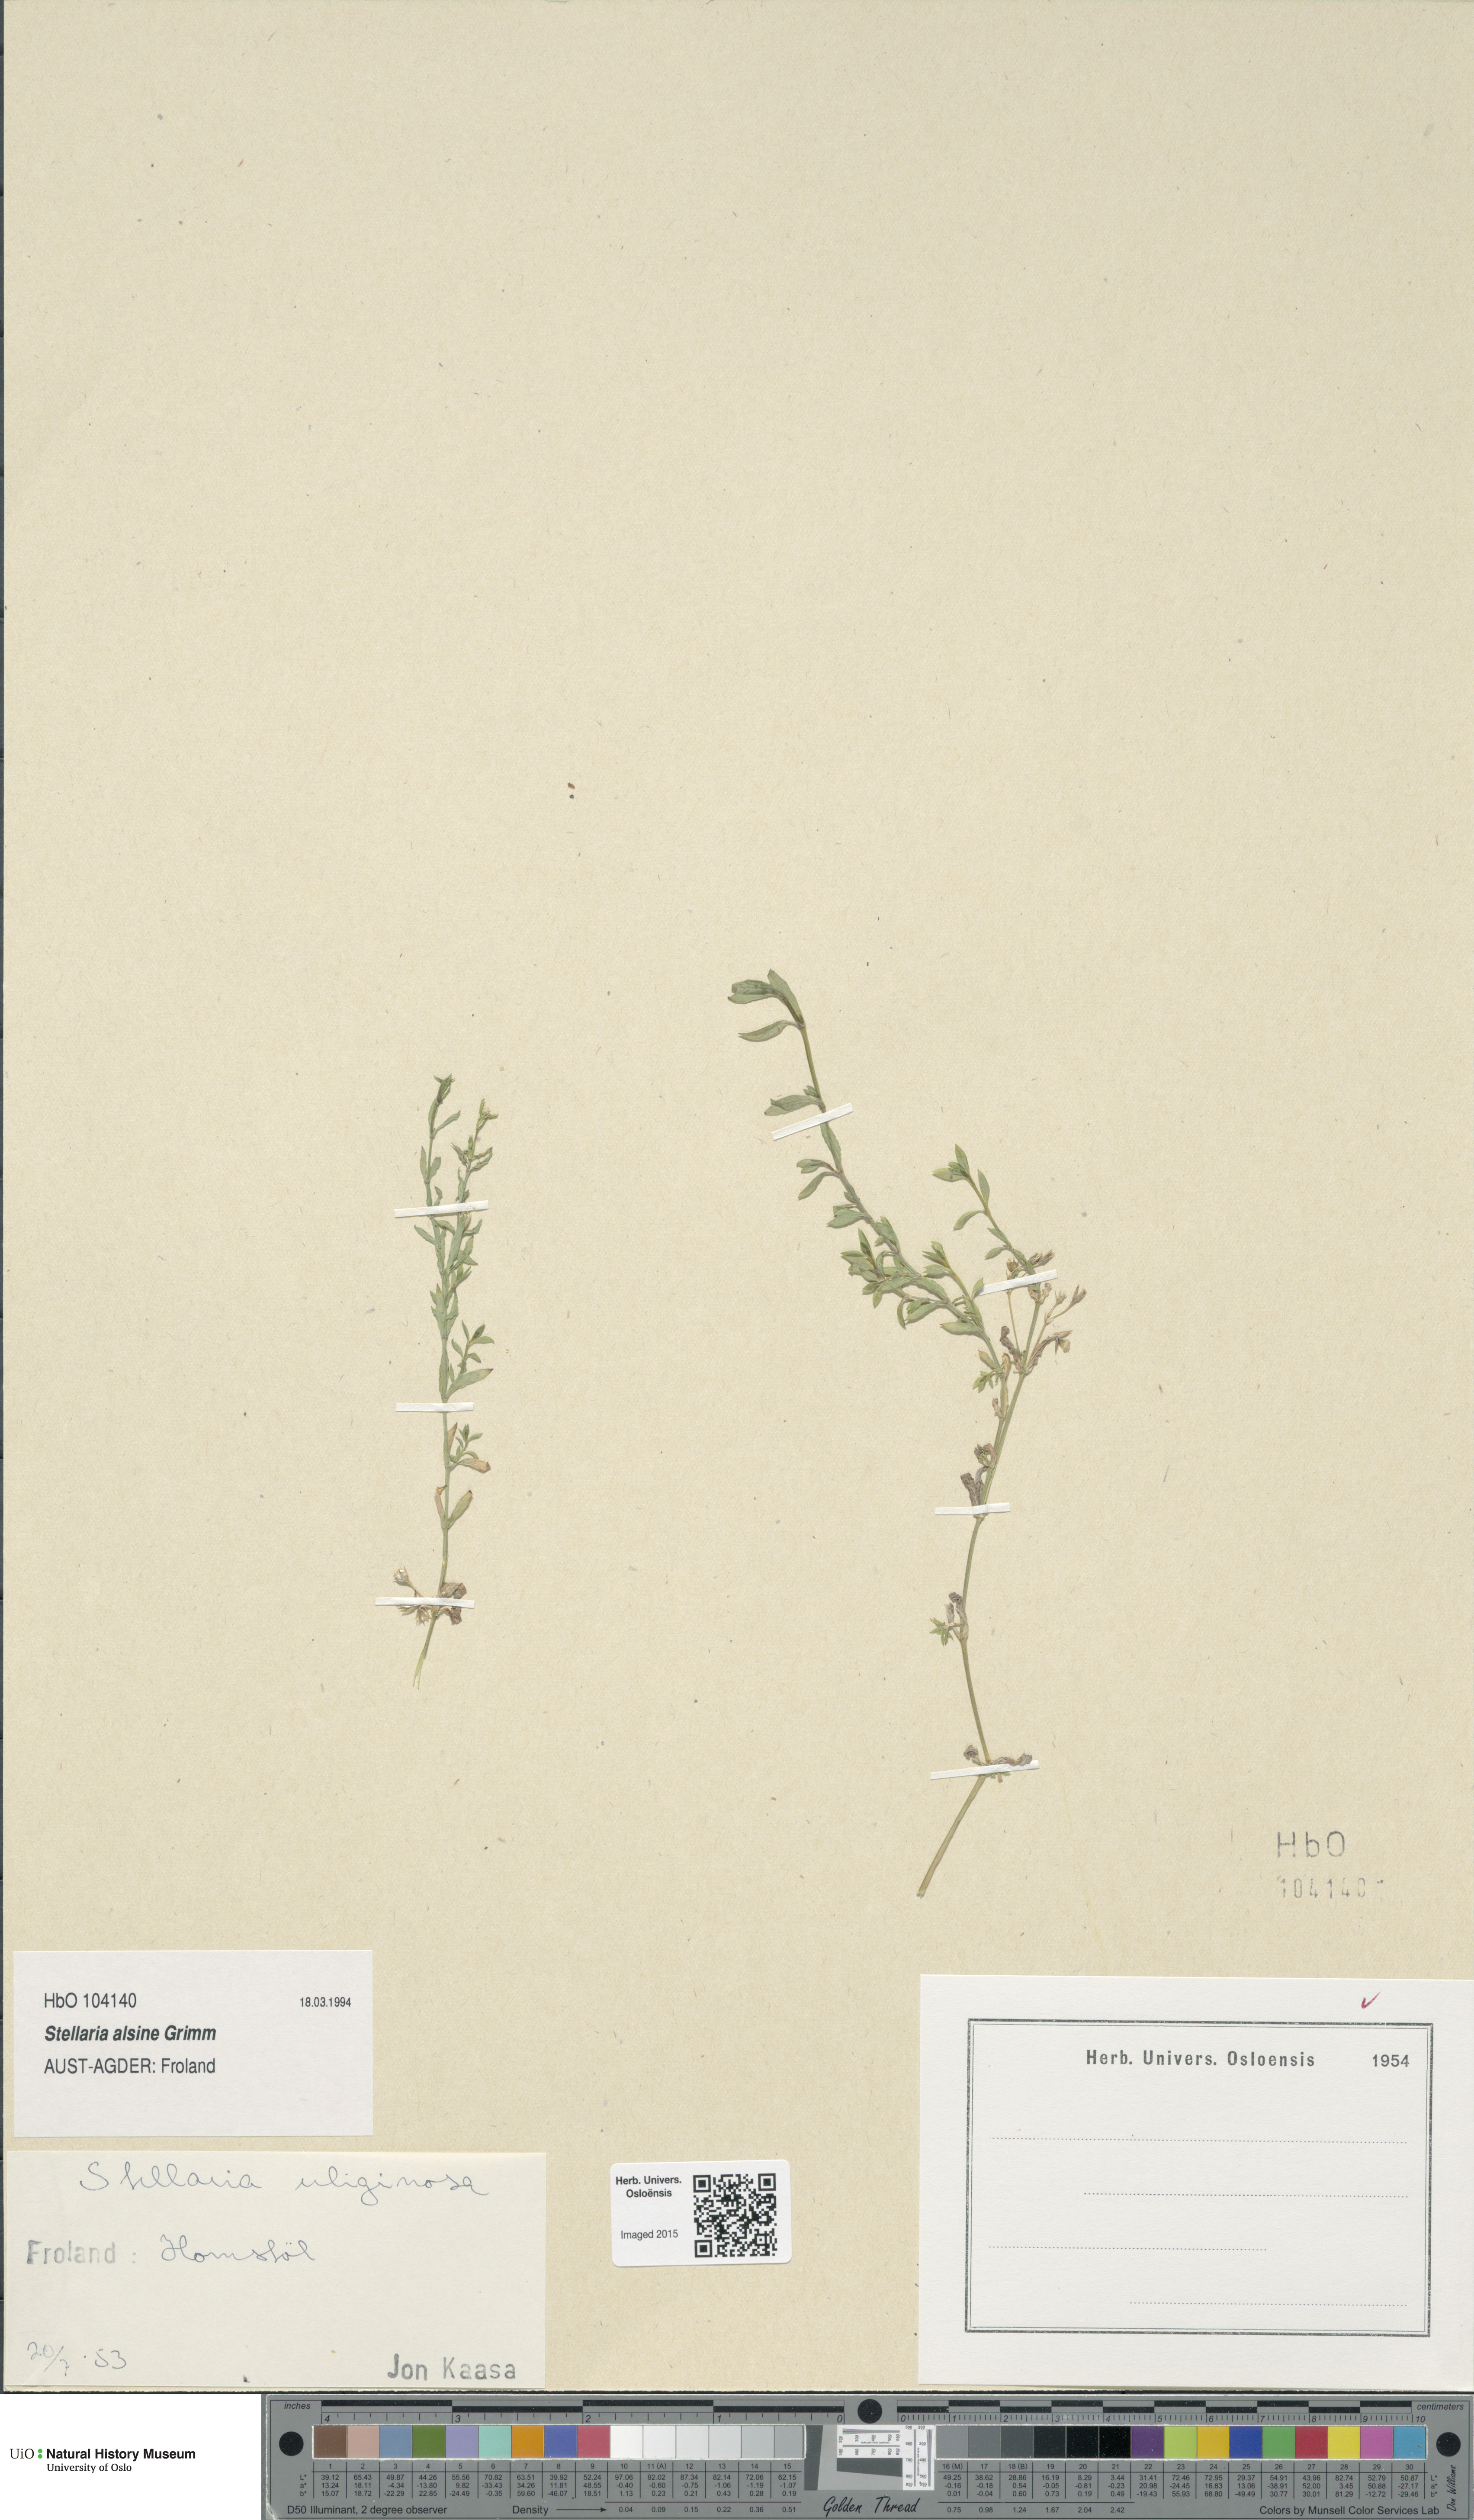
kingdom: Plantae
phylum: Tracheophyta
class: Magnoliopsida
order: Caryophyllales
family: Caryophyllaceae
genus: Stellaria
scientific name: Stellaria alsine
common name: Bog stitchwort
